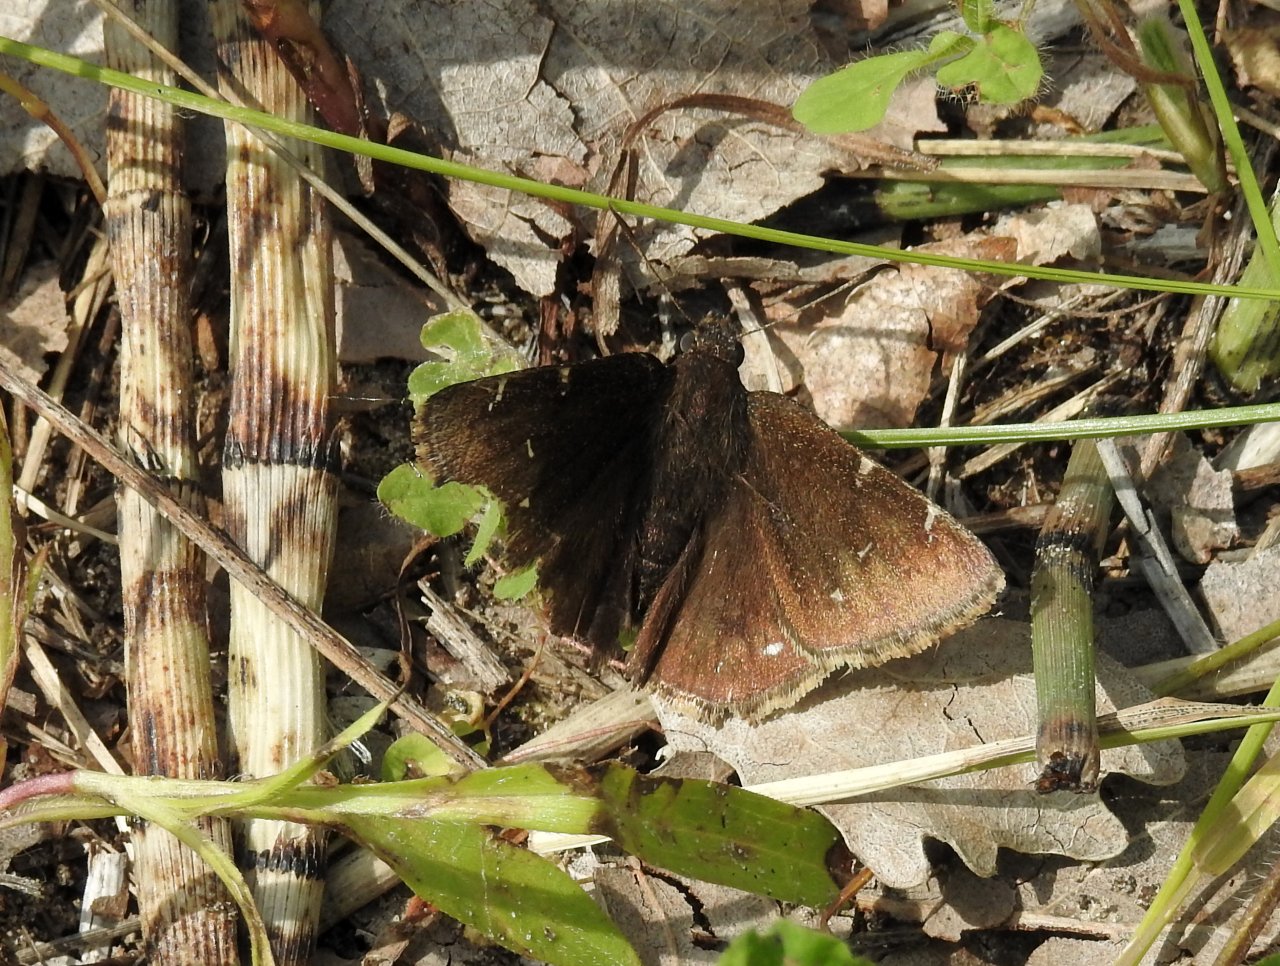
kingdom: Animalia
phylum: Arthropoda
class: Insecta
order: Lepidoptera
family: Hesperiidae
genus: Autochton
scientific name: Autochton
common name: Northern Cloudywing
